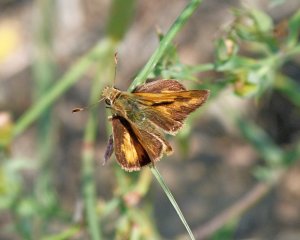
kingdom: Animalia
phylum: Arthropoda
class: Insecta
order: Lepidoptera
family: Hesperiidae
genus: Ochlodes
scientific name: Ochlodes sylvanoides
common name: Woodland Skipper
